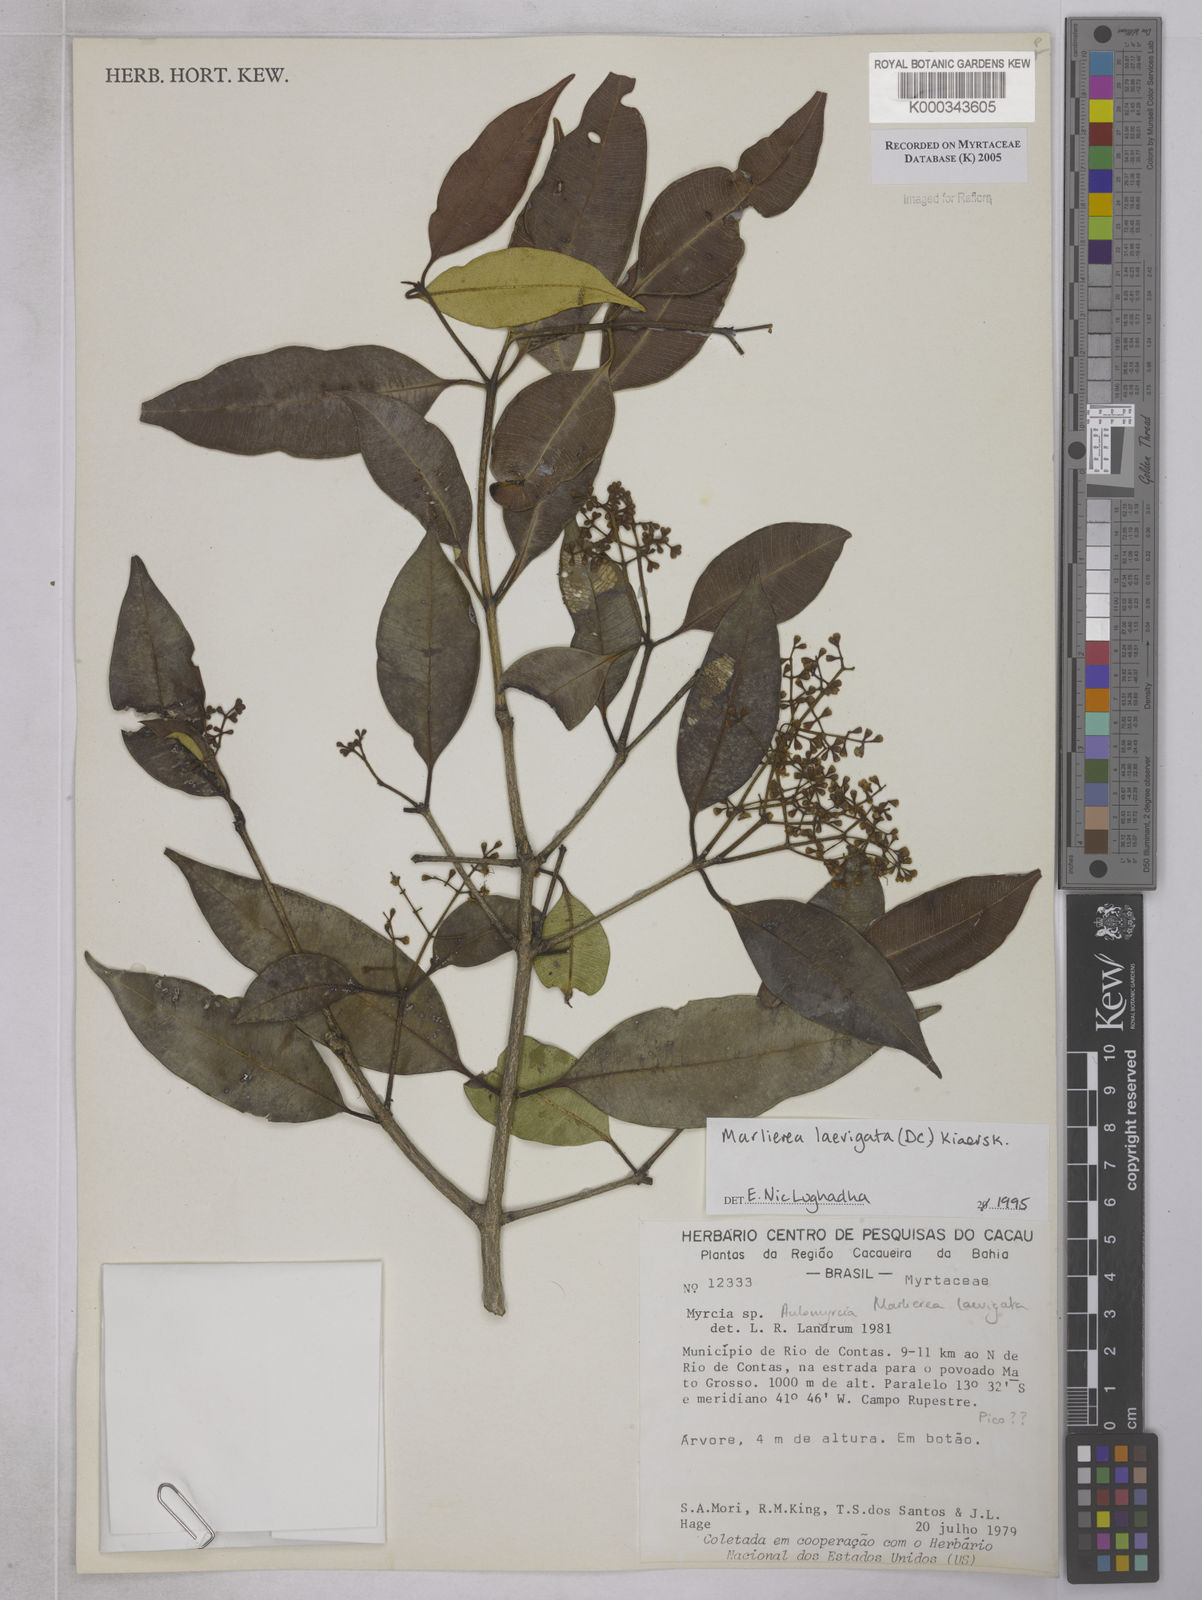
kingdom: Plantae
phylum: Tracheophyta
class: Magnoliopsida
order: Myrtales
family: Myrtaceae
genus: Myrcia
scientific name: Myrcia multipunctata
